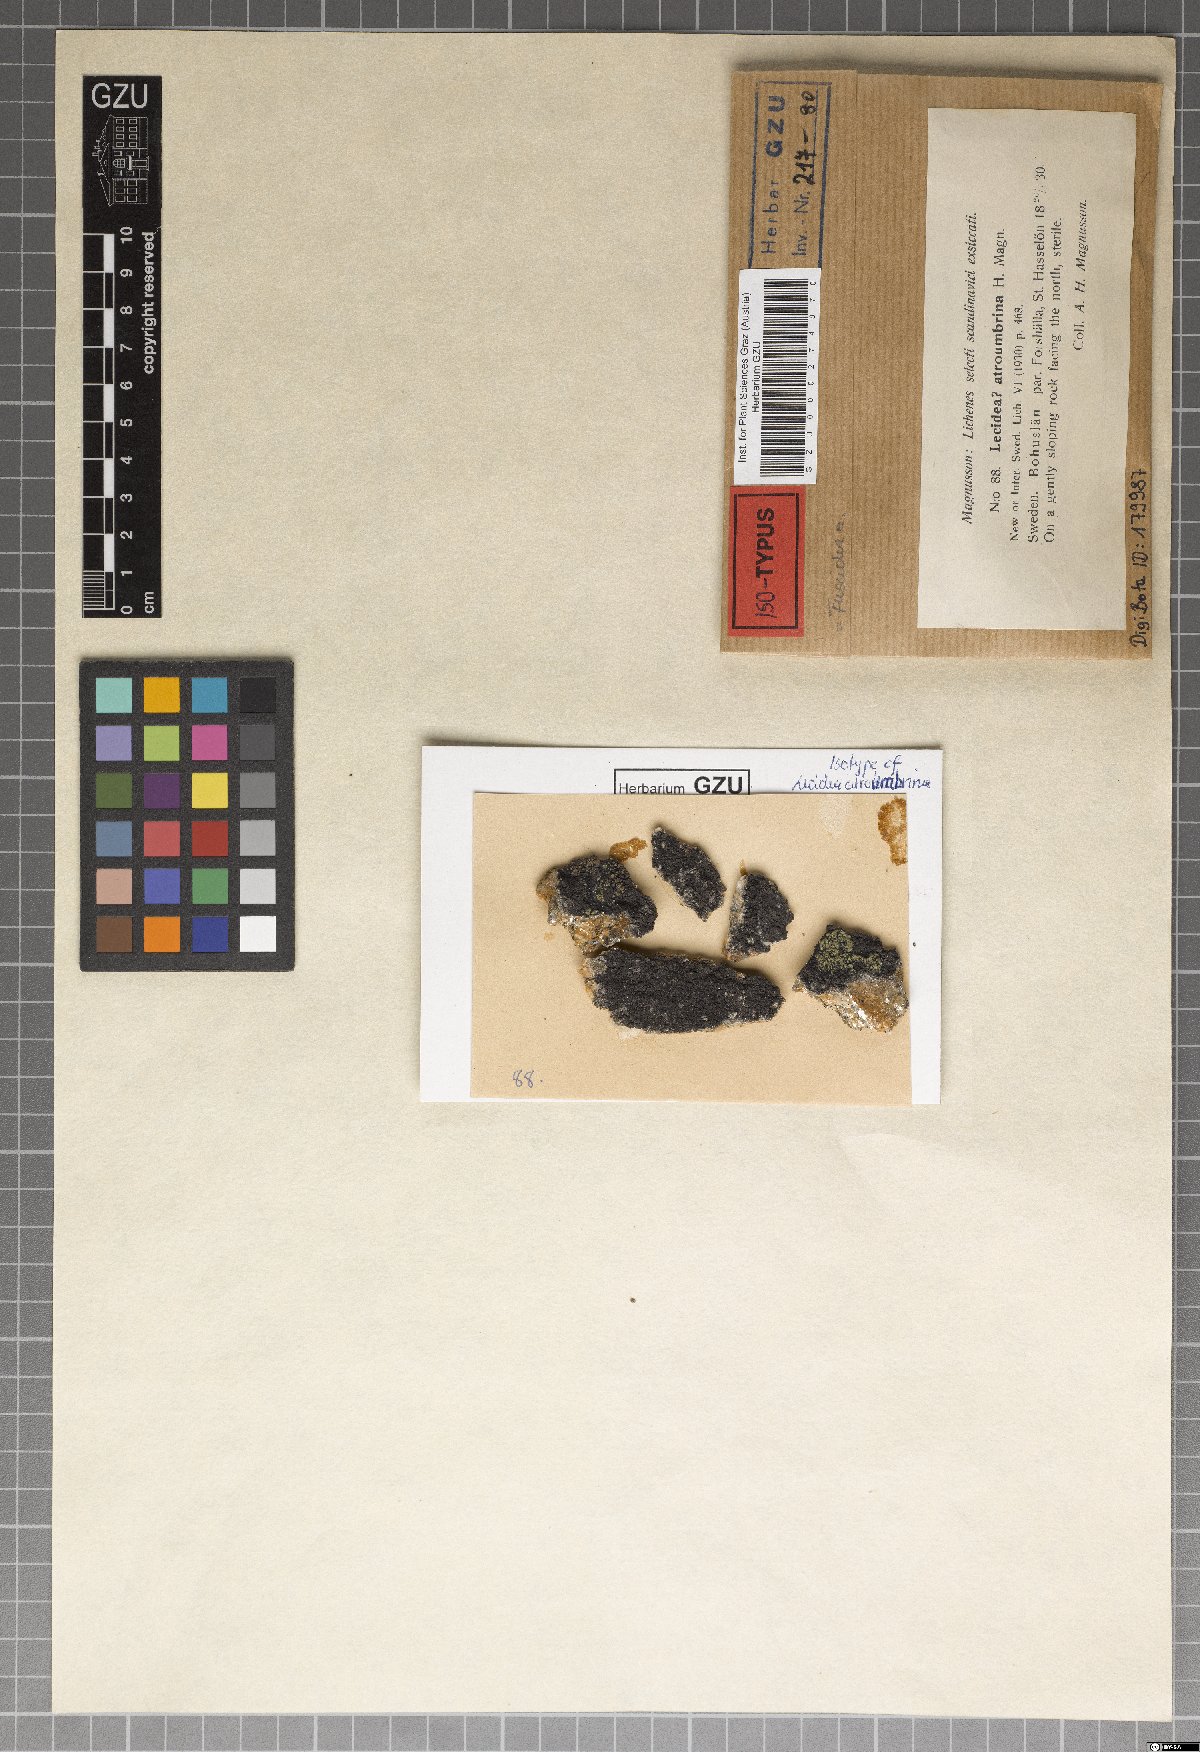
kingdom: Fungi
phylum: Ascomycota
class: Lecanoromycetes
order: Schaereriales
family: Schaereriaceae
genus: Ropalospora
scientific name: Ropalospora atroumbrina
